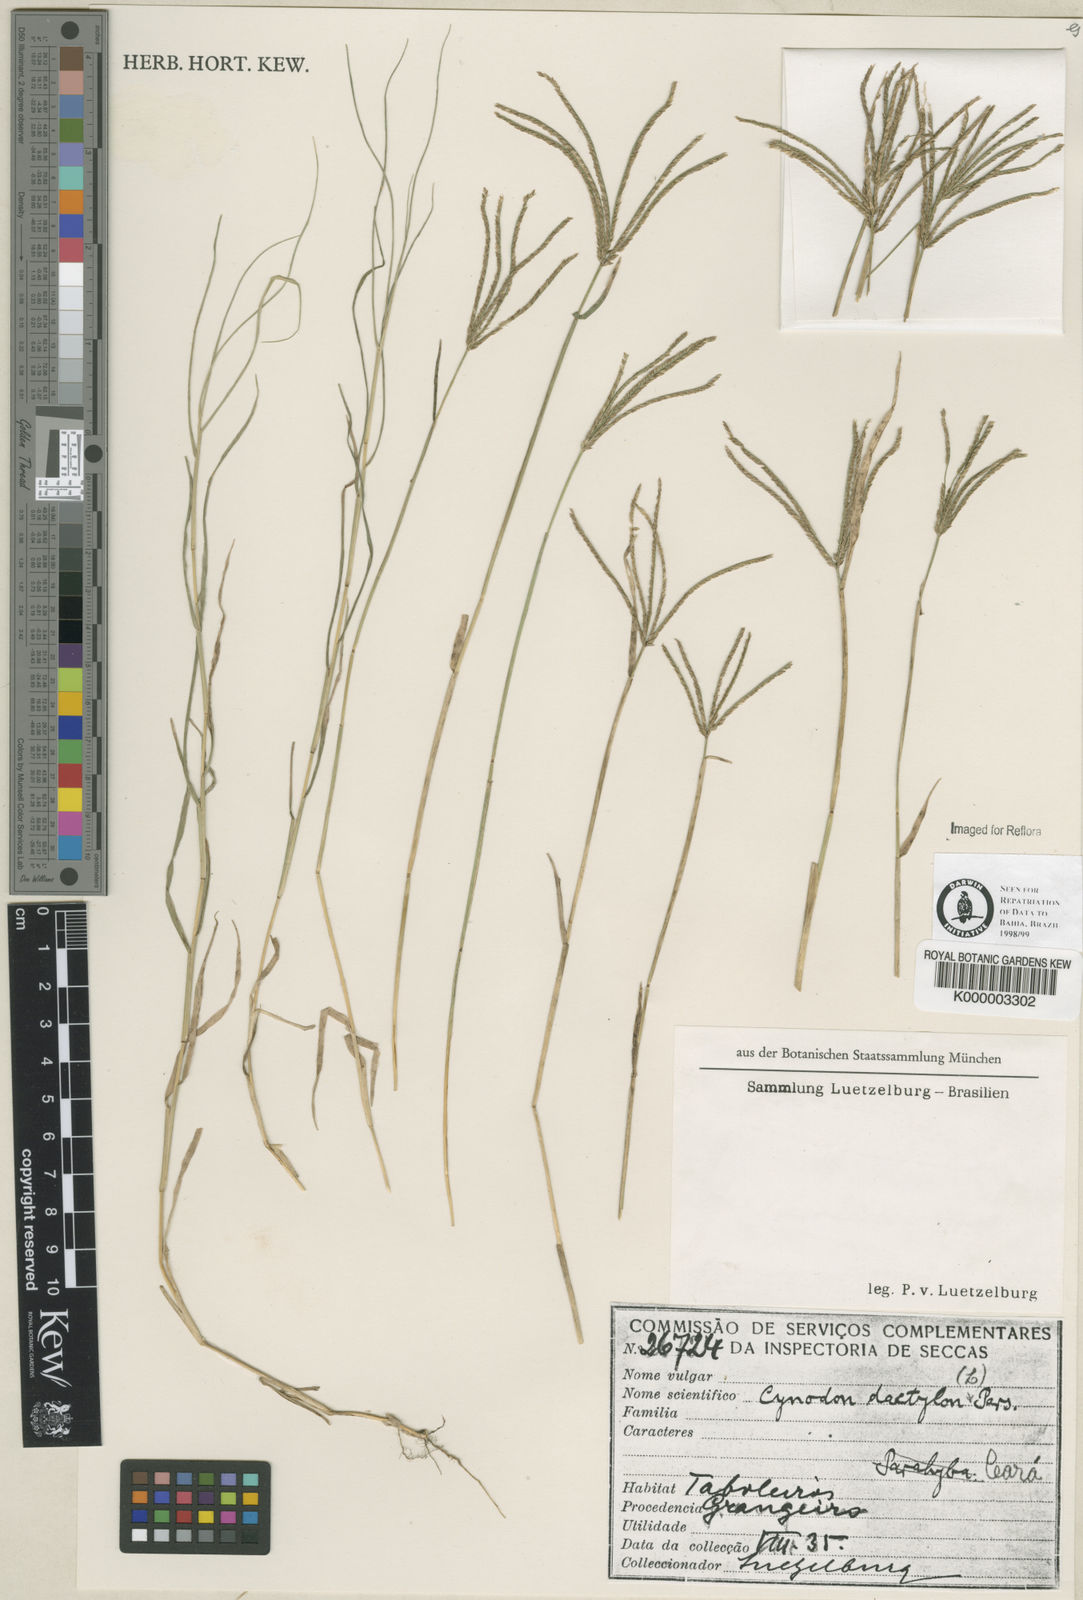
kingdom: Plantae
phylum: Tracheophyta
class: Liliopsida
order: Poales
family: Poaceae
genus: Cynodon
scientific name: Cynodon dactylon
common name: Bermuda grass
